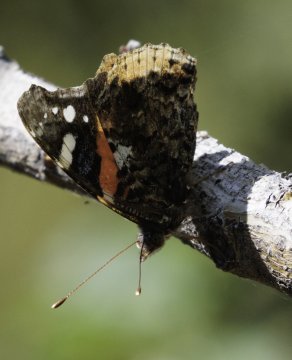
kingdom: Animalia
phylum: Arthropoda
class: Insecta
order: Lepidoptera
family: Nymphalidae
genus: Vanessa
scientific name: Vanessa atalanta
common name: Red Admiral
